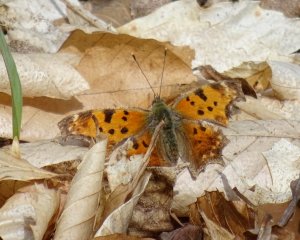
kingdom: Animalia
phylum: Arthropoda
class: Insecta
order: Lepidoptera
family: Nymphalidae
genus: Polygonia
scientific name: Polygonia comma
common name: Eastern Comma
